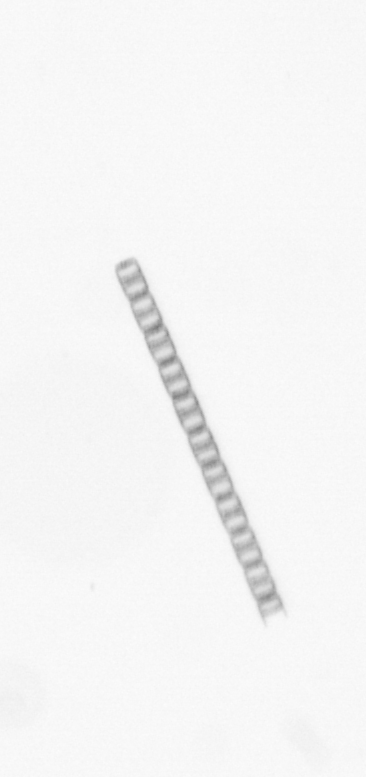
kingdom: Chromista
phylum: Ochrophyta
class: Bacillariophyceae
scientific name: Bacillariophyceae
